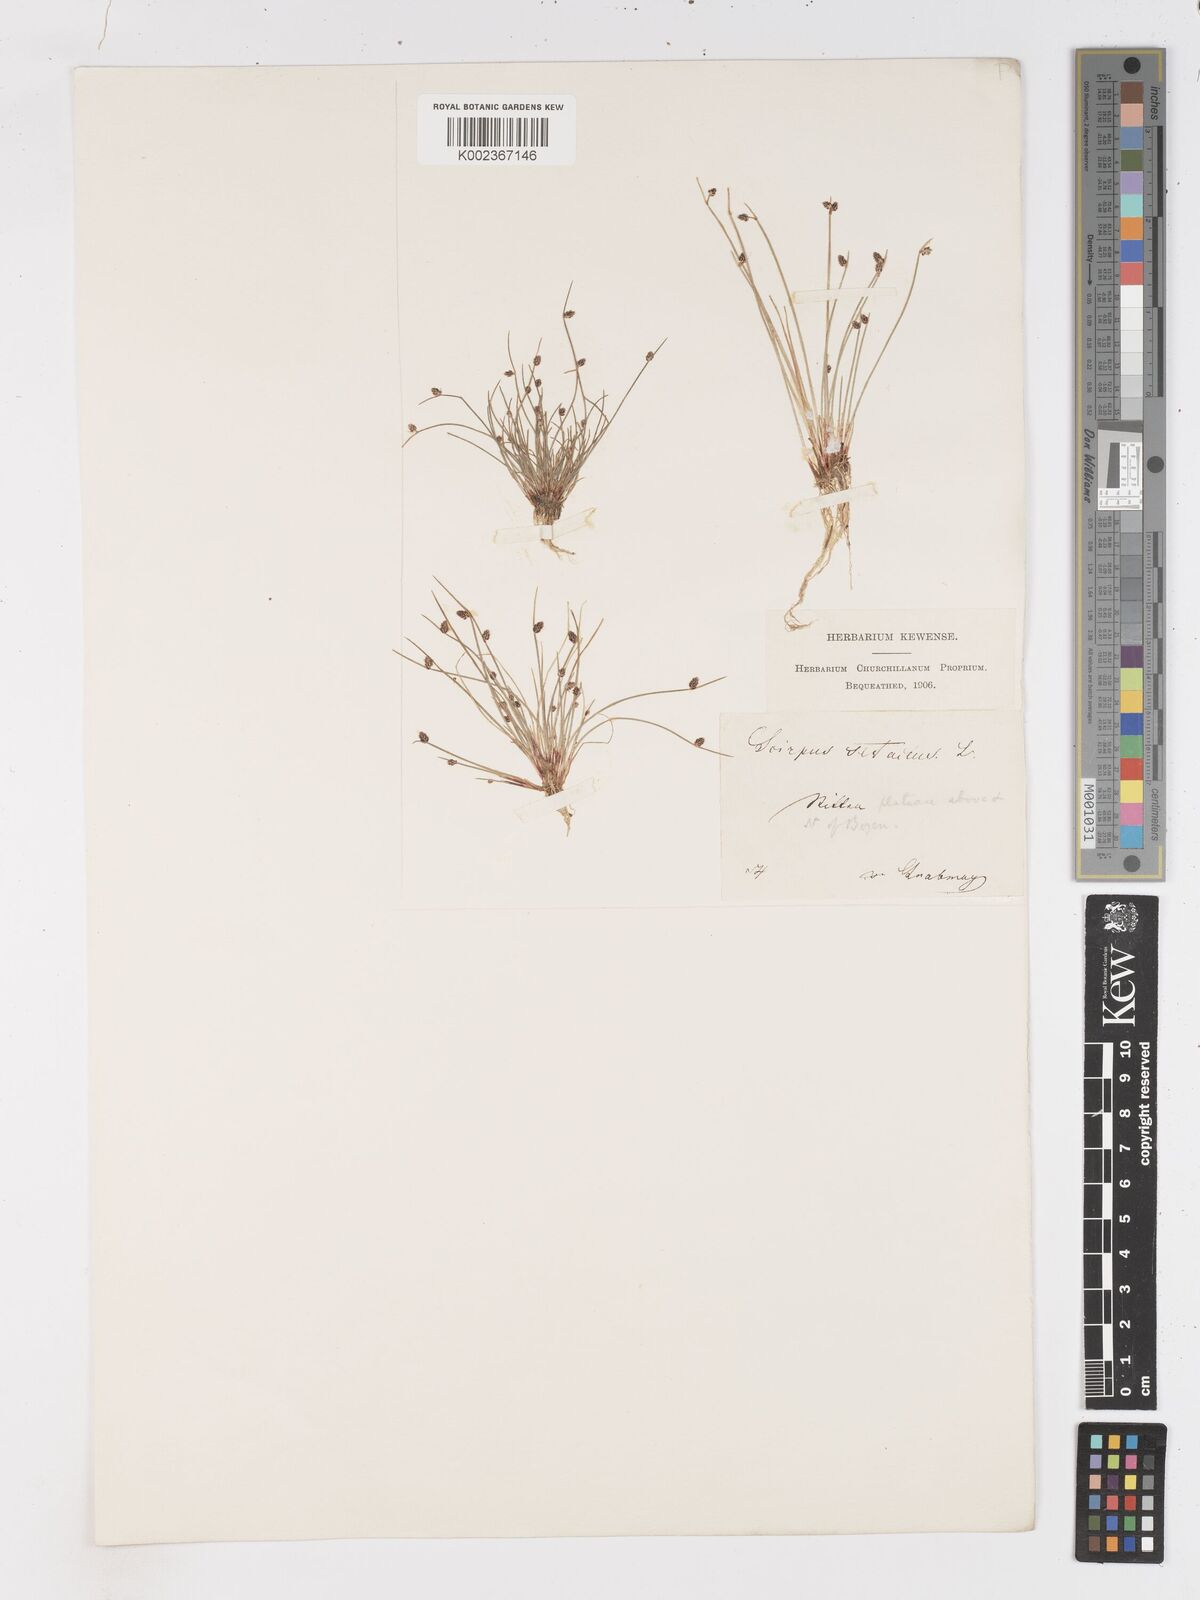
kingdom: Plantae
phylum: Tracheophyta
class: Liliopsida
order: Poales
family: Cyperaceae
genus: Isolepis
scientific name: Isolepis setacea
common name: Bristle club-rush
